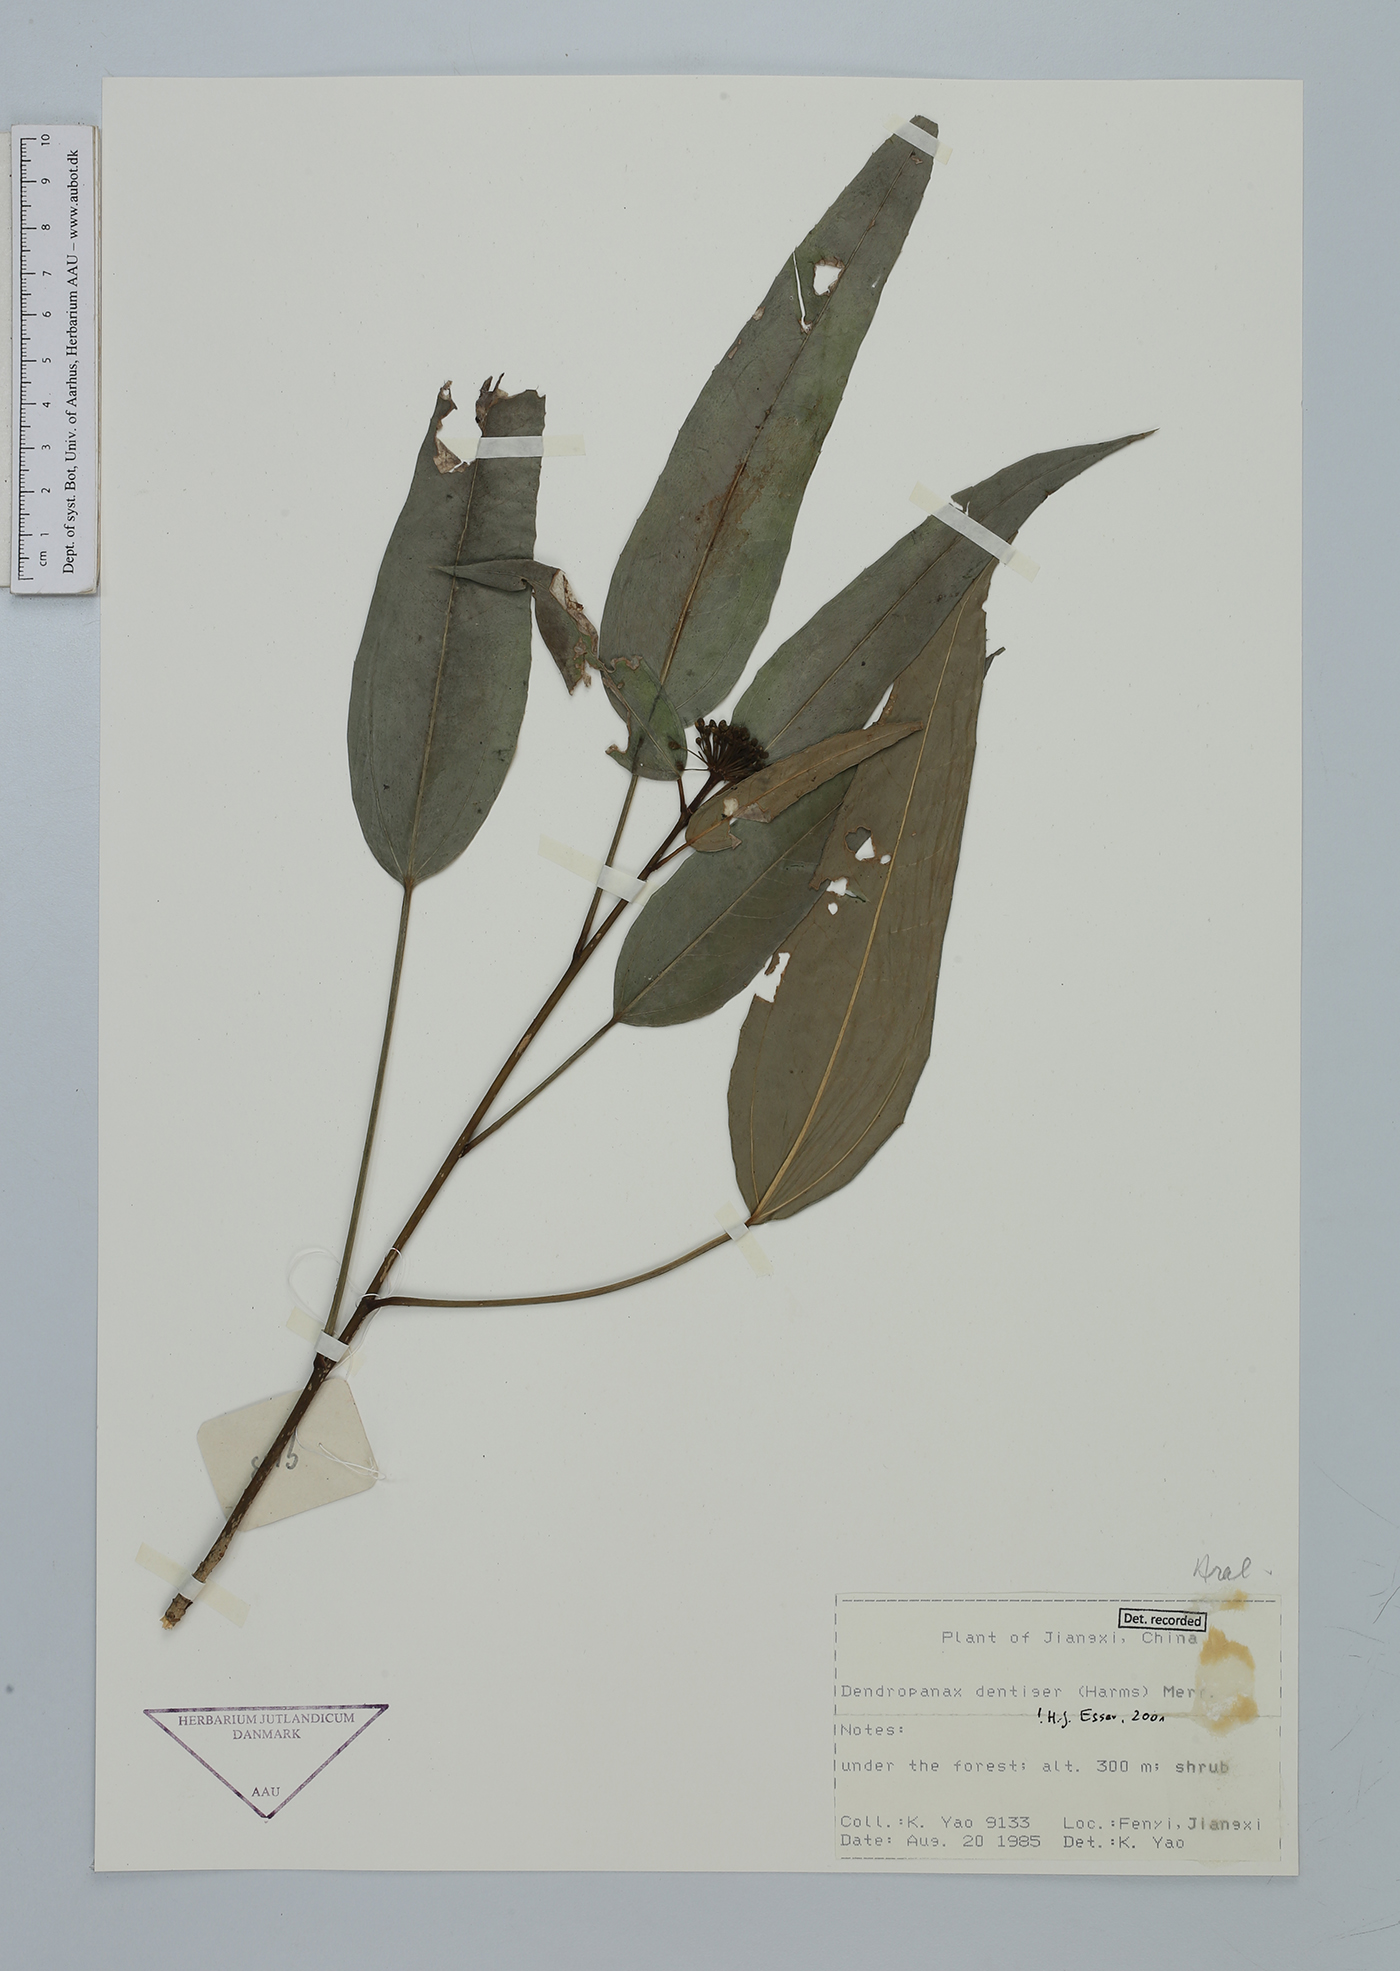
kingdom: Plantae
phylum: Tracheophyta
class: Magnoliopsida
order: Apiales
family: Araliaceae
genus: Dendropanax
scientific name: Dendropanax dentiger
